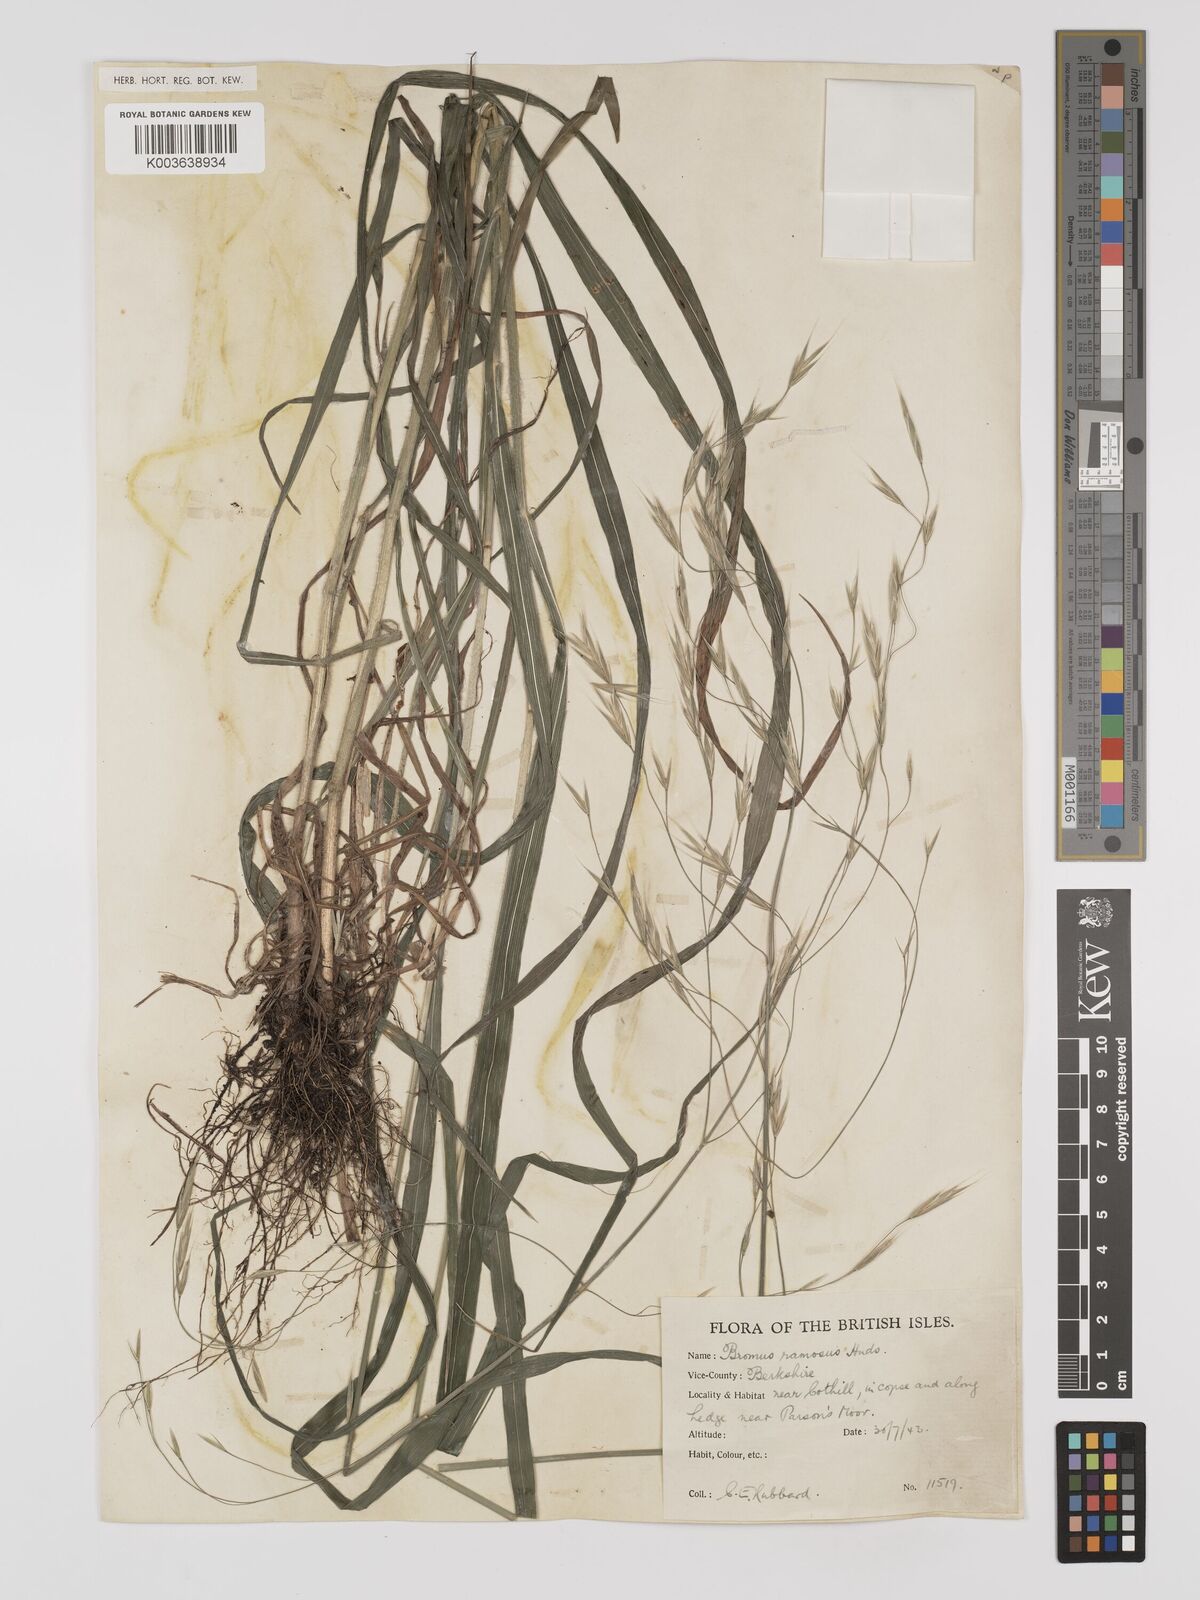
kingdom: Plantae
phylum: Tracheophyta
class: Liliopsida
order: Poales
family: Poaceae
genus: Bromus
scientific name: Bromus ramosus
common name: Hairy brome
